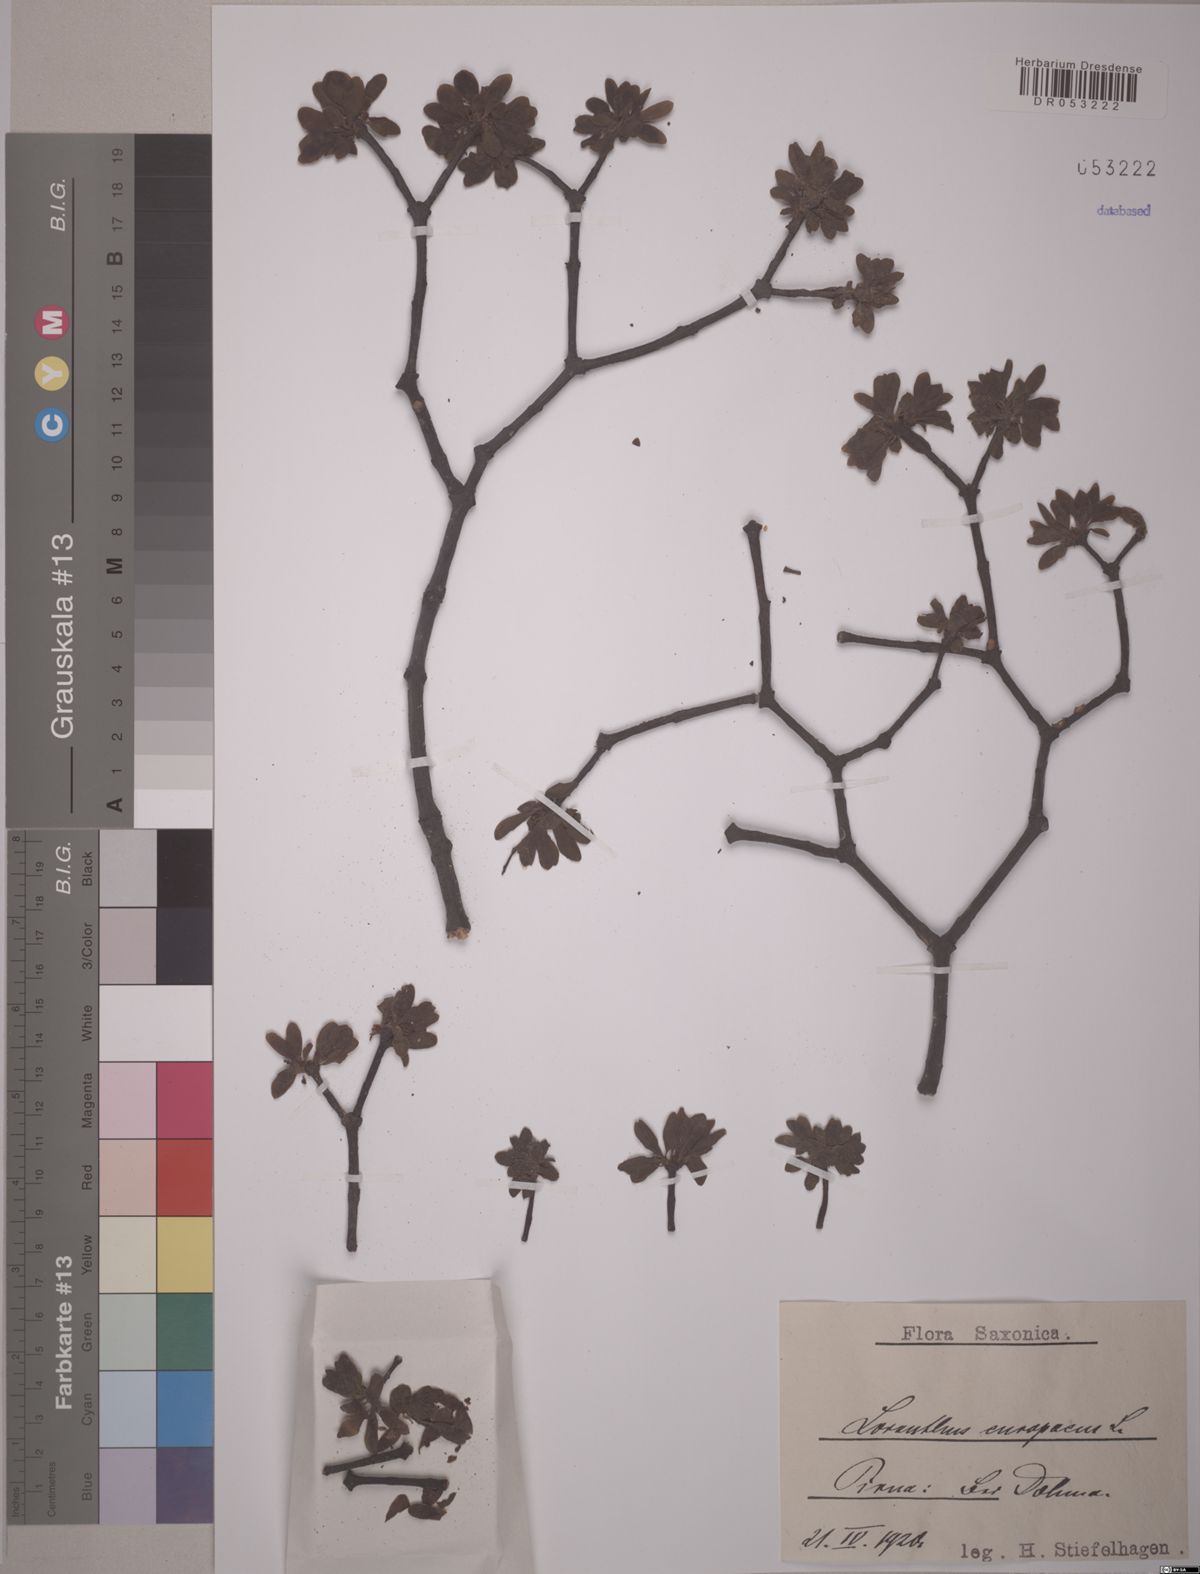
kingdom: Plantae
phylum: Tracheophyta
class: Magnoliopsida
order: Santalales
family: Loranthaceae
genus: Loranthus
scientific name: Loranthus europaeus
